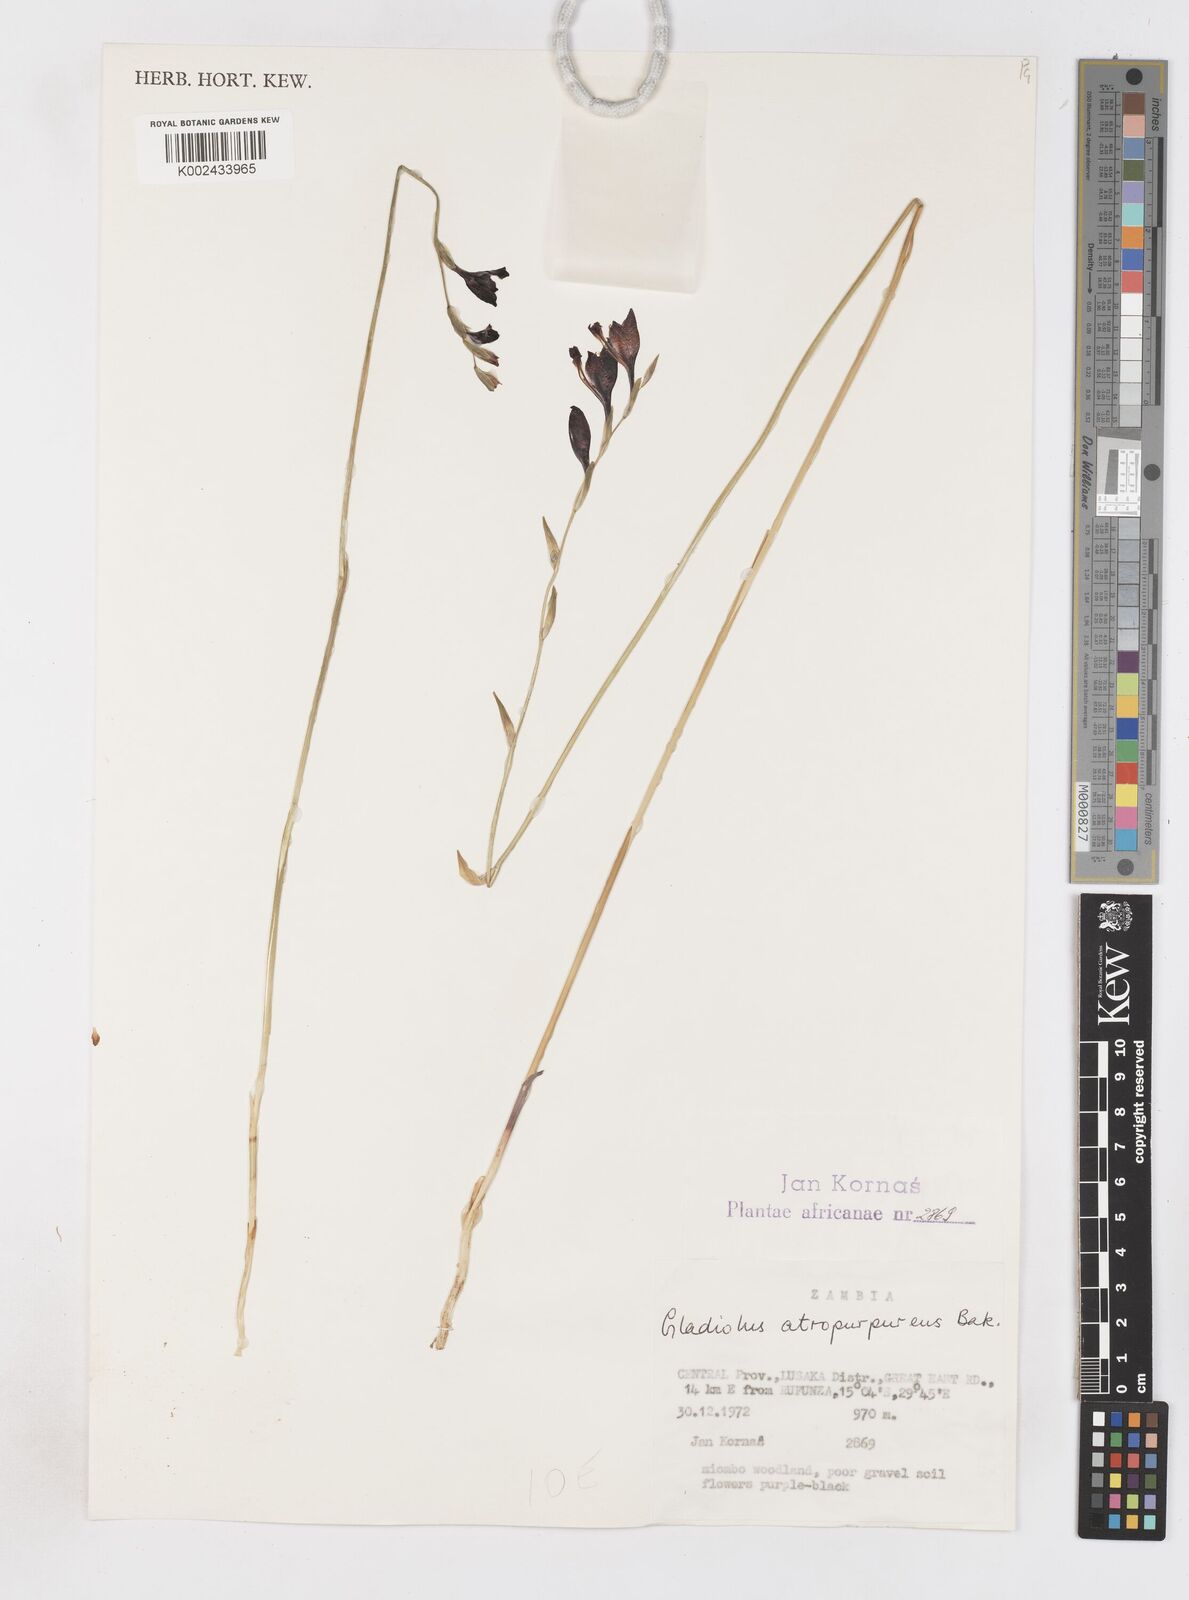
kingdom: Plantae
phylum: Tracheophyta
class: Liliopsida
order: Asparagales
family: Iridaceae
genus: Gladiolus
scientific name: Gladiolus atropurpureus
